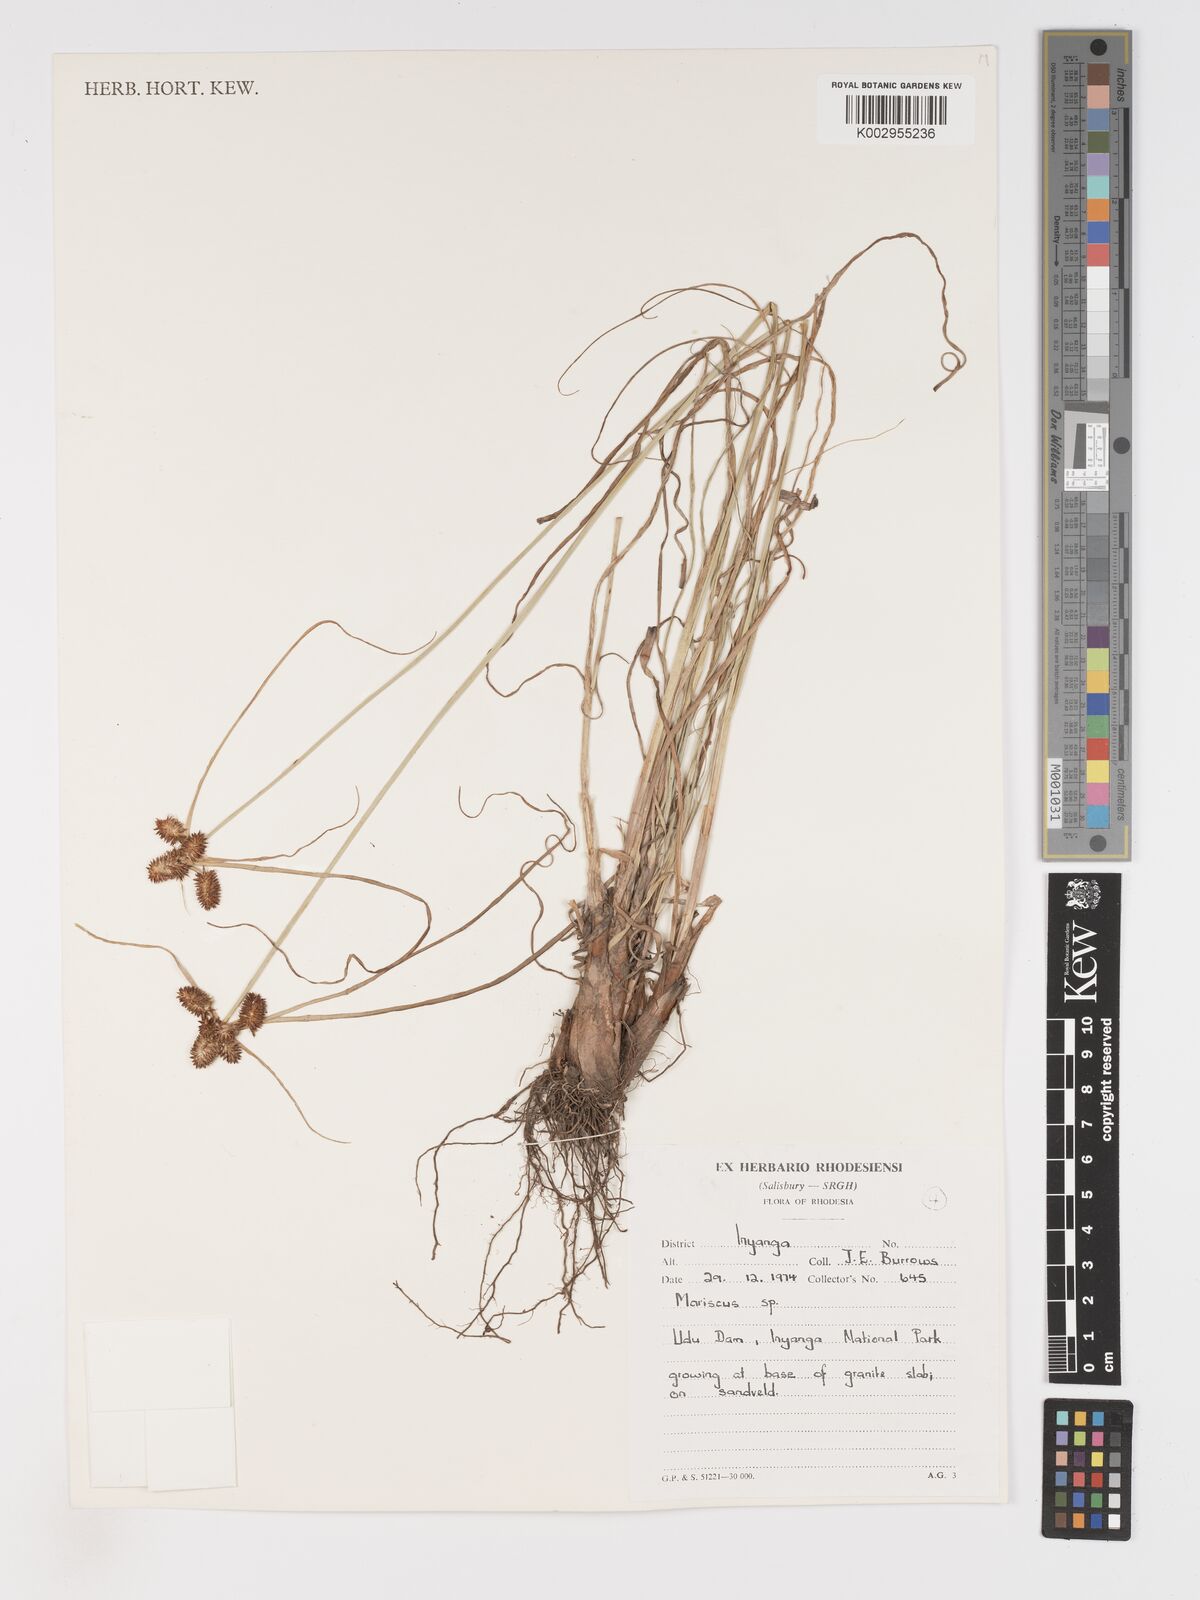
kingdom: Plantae
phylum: Tracheophyta
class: Liliopsida
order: Poales
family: Cyperaceae
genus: Cyperus
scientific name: Cyperus chersinus
